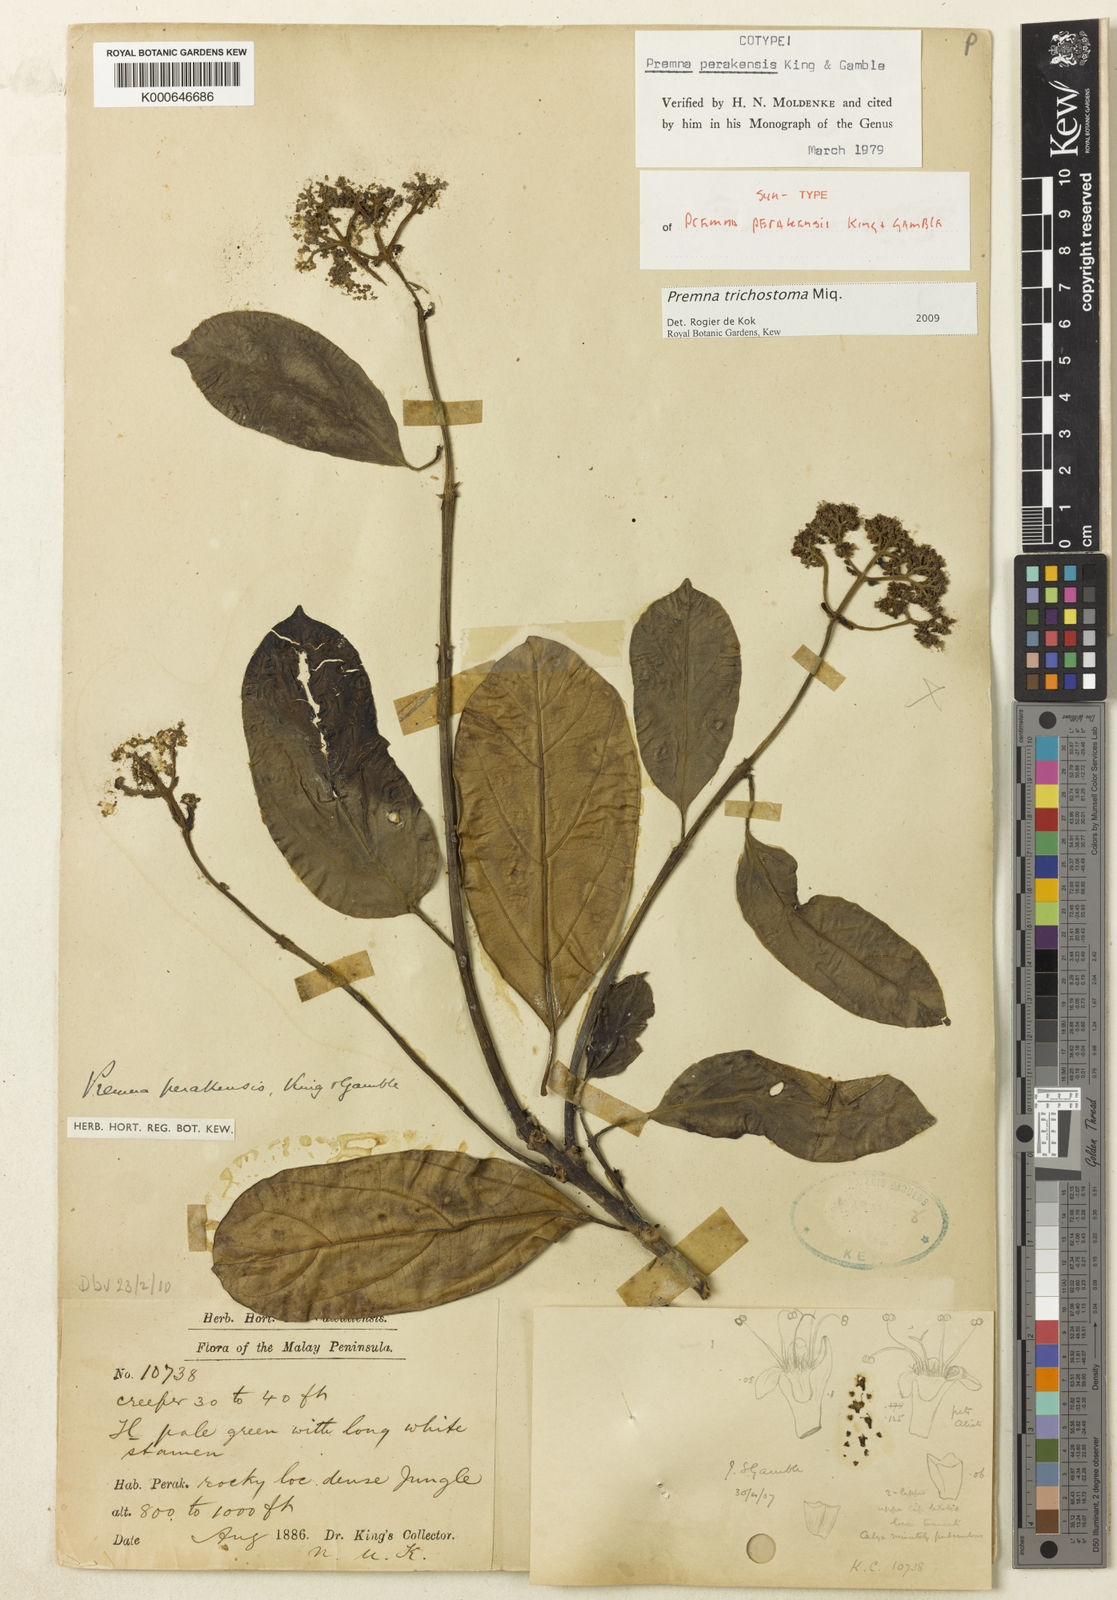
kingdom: Plantae
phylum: Tracheophyta
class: Magnoliopsida
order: Lamiales
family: Lamiaceae
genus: Premna
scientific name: Premna trichostoma
